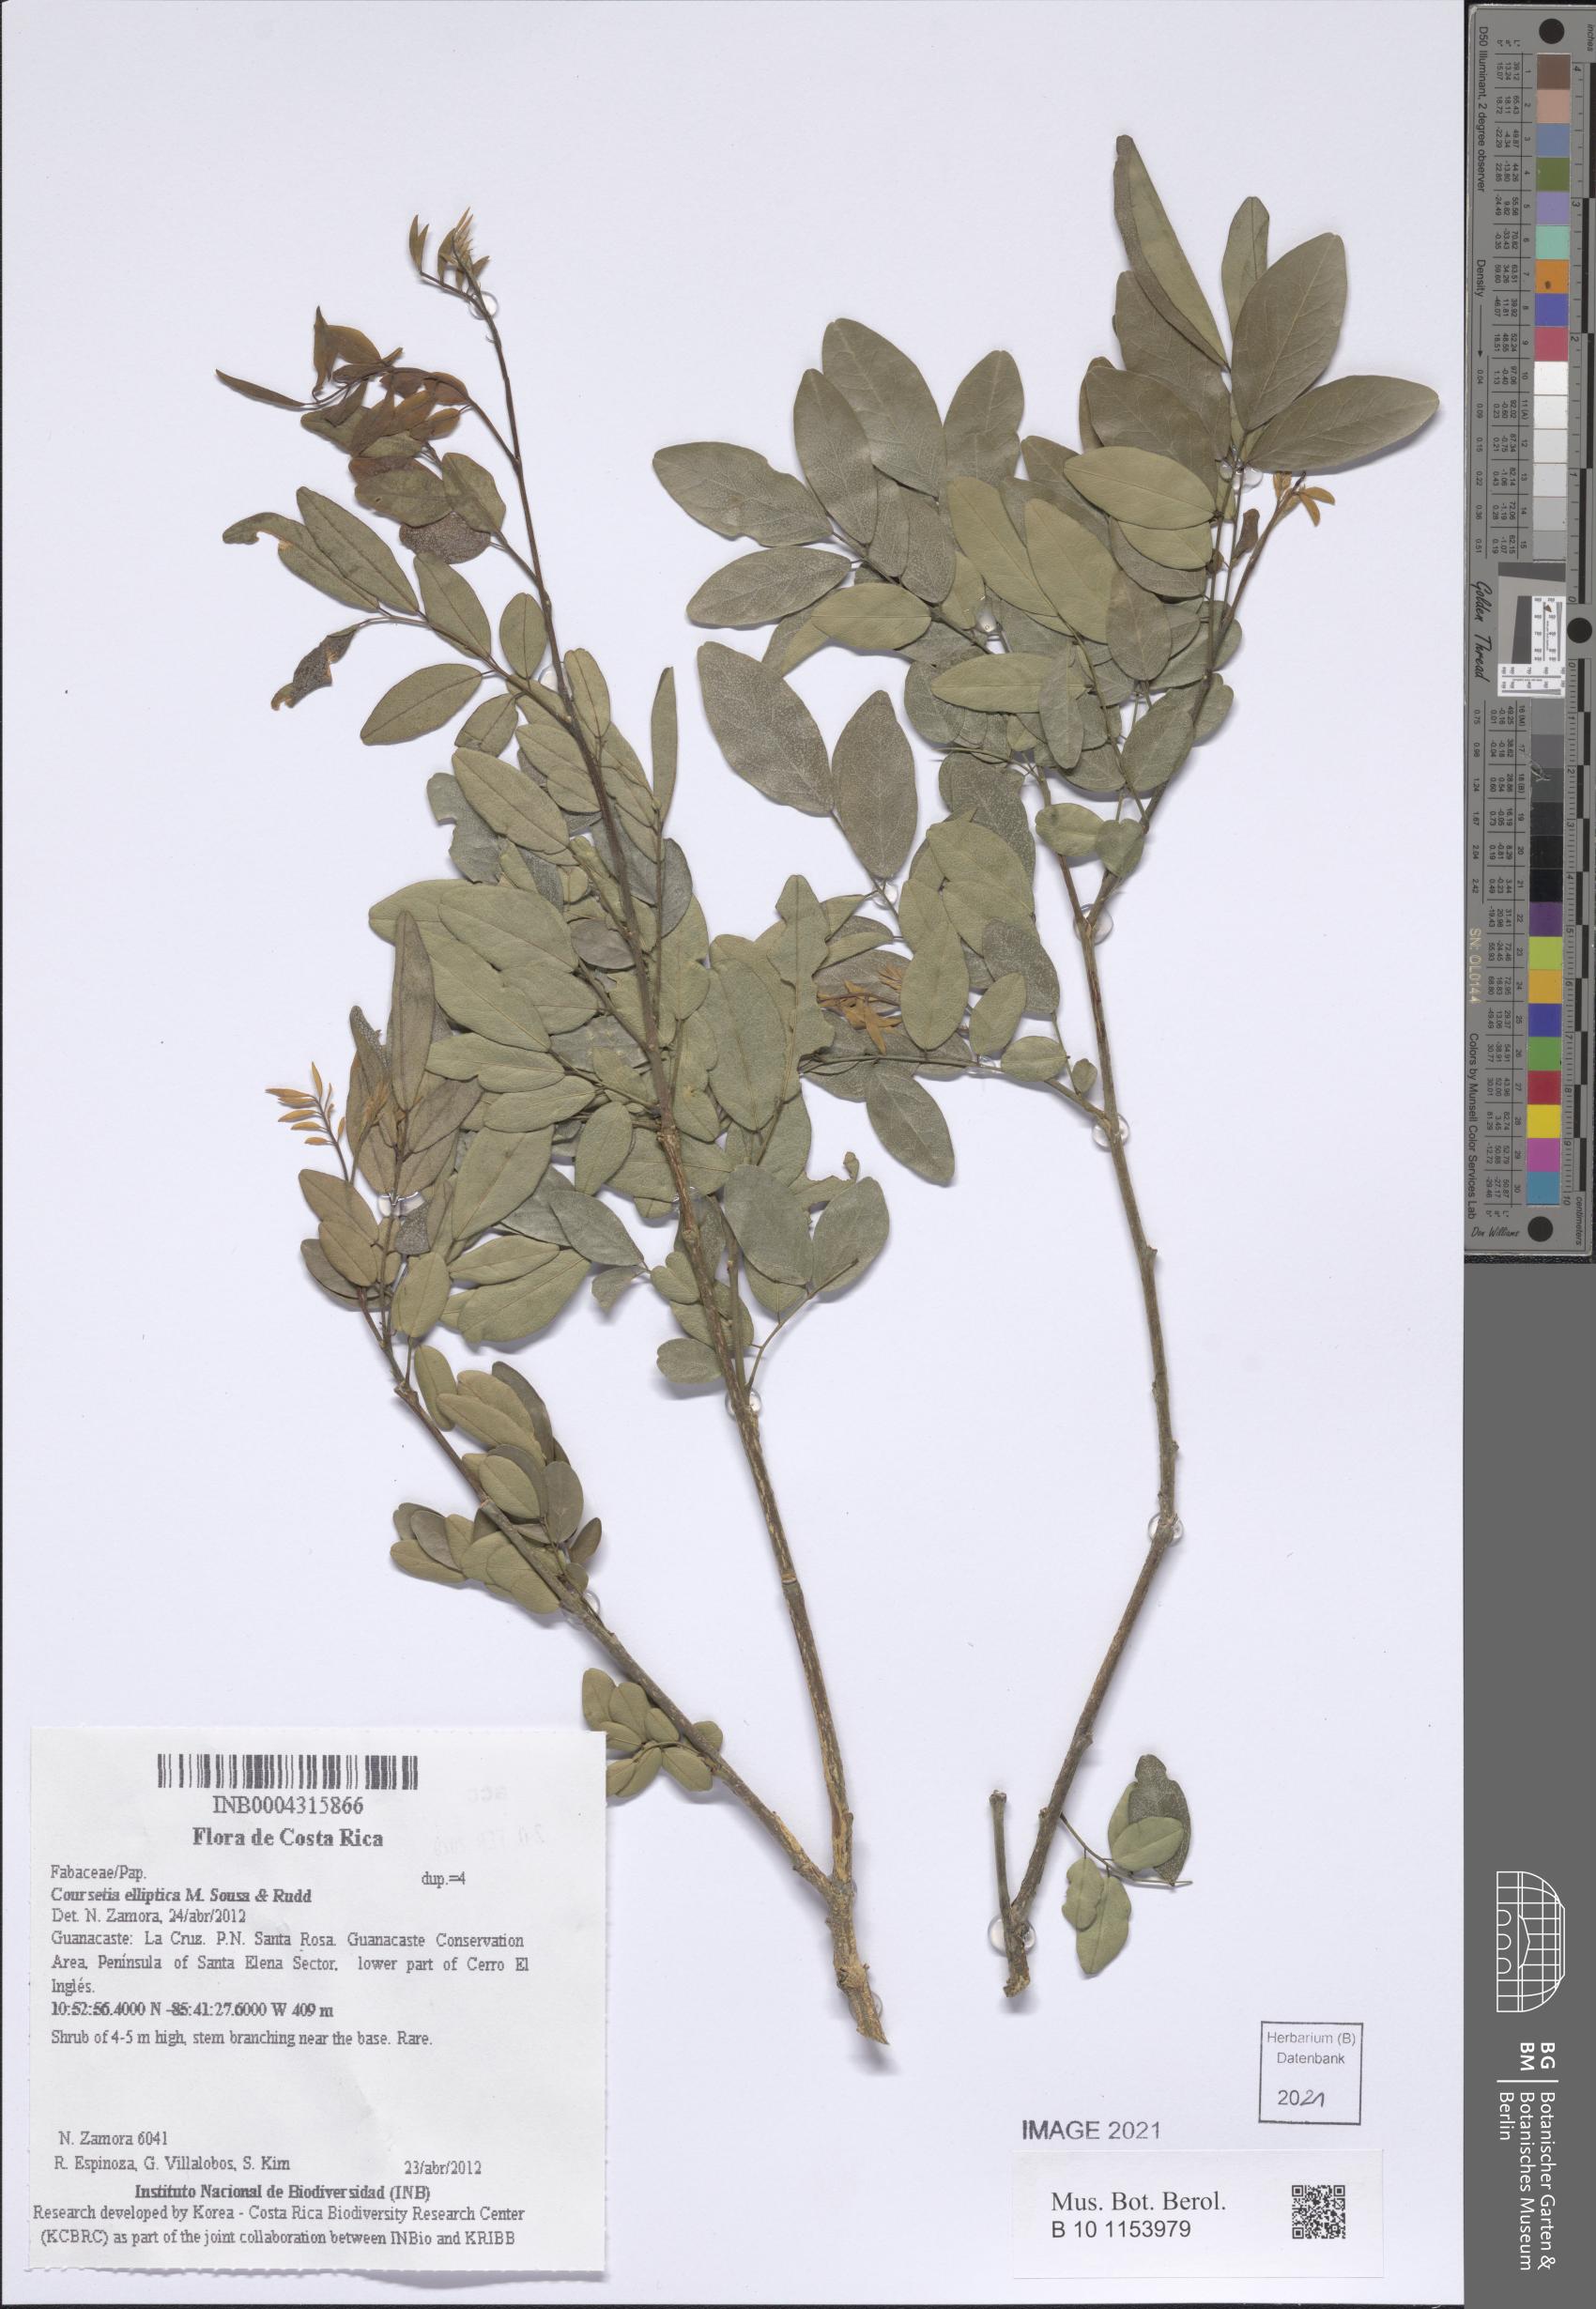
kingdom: Plantae
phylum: Tracheophyta
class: Magnoliopsida
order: Fabales
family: Fabaceae
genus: Coursetia
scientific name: Coursetia elliptica
